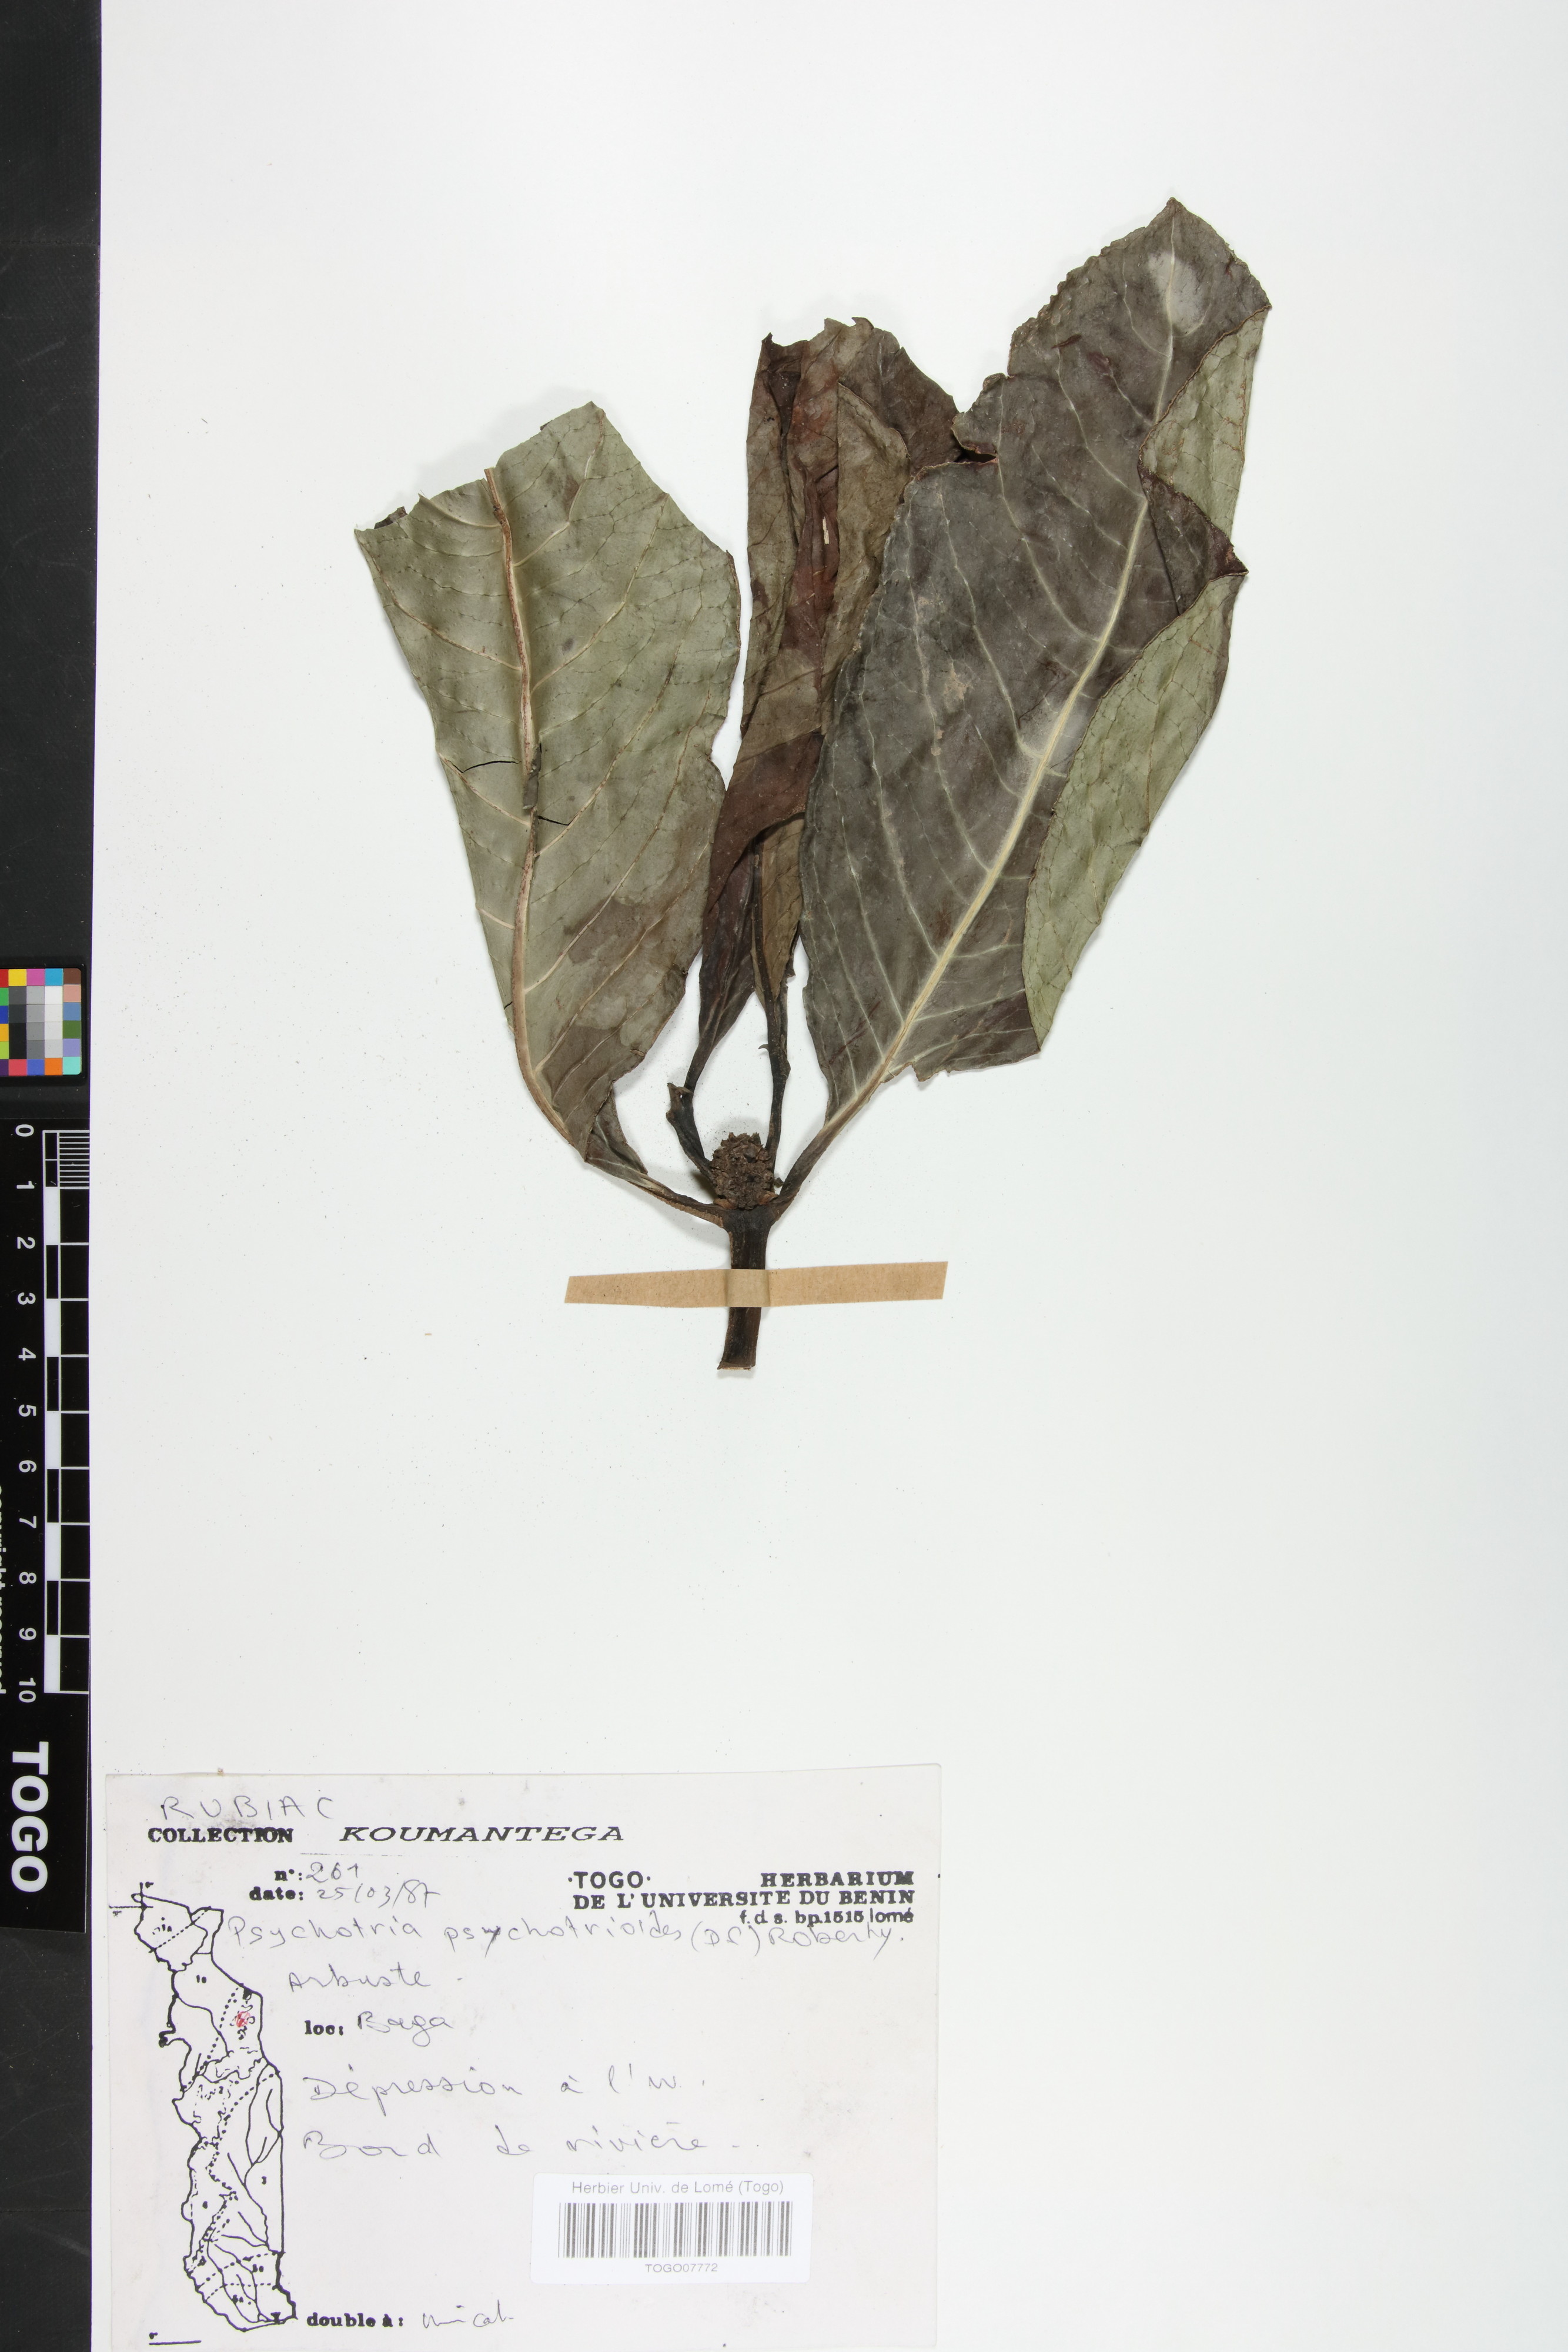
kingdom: Plantae
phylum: Tracheophyta
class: Magnoliopsida
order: Gentianales
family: Rubiaceae
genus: Psychotria
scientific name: Psychotria psychotrioides
